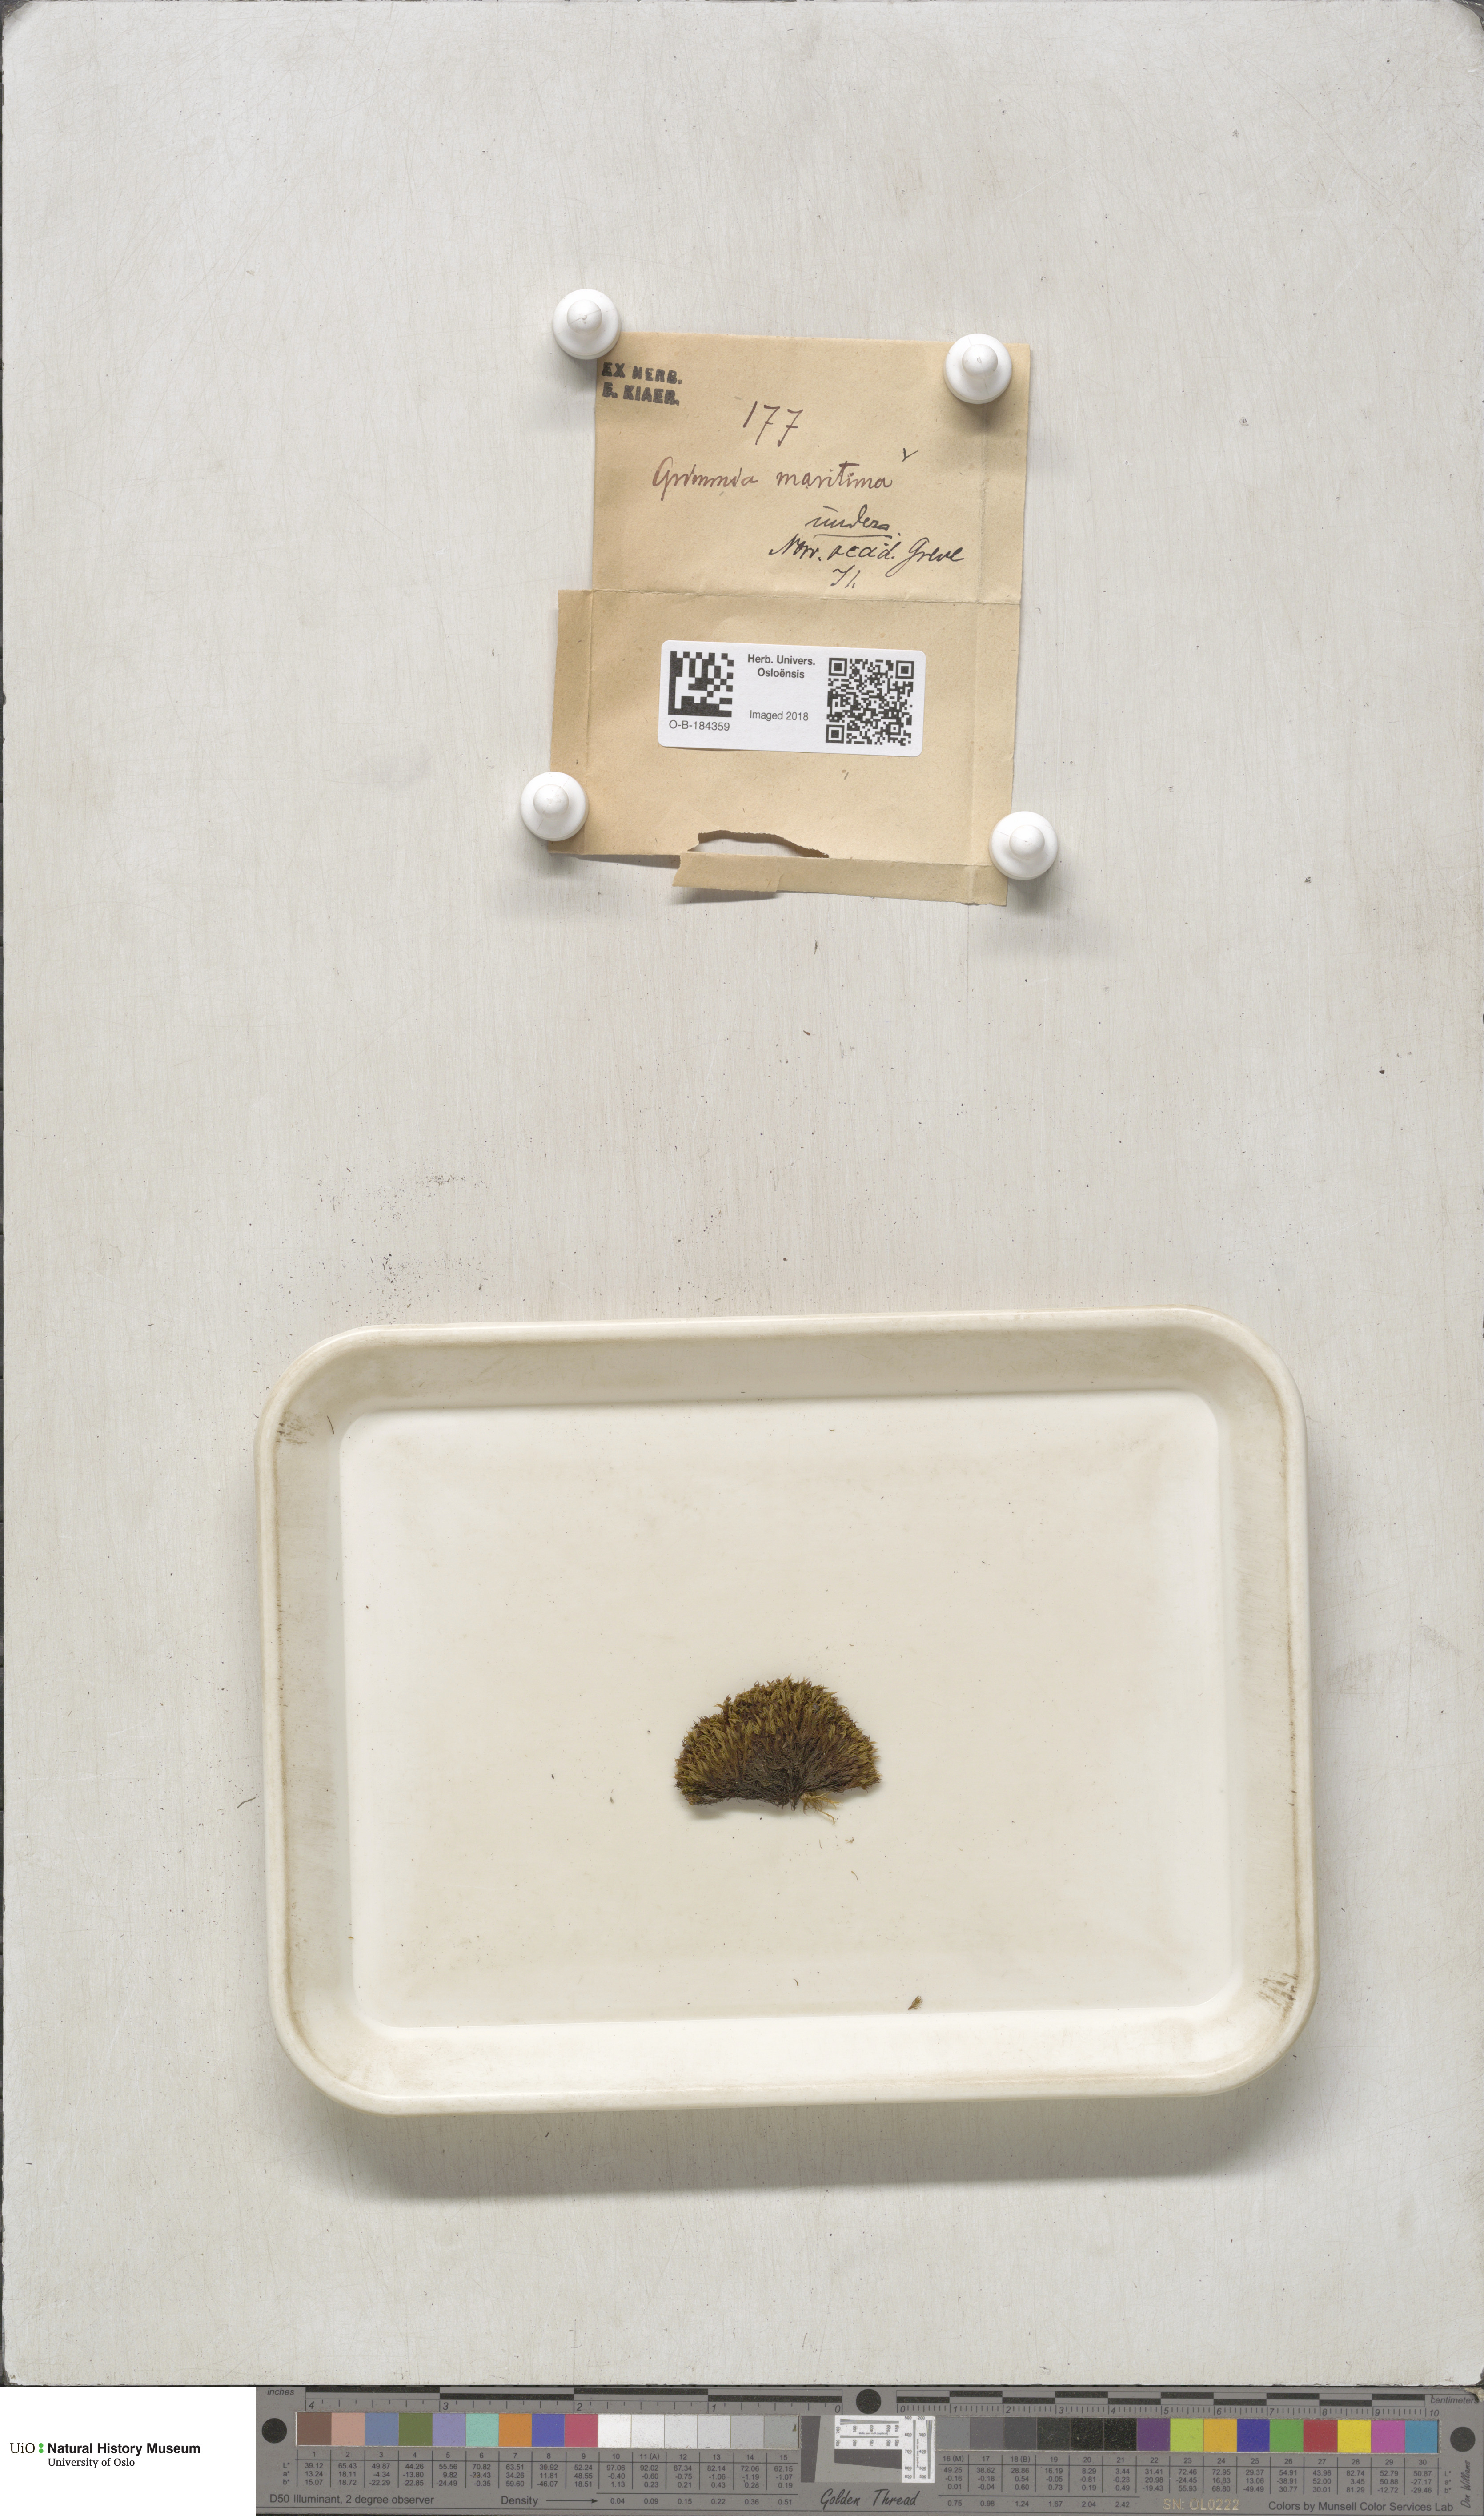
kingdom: Plantae
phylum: Bryophyta
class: Bryopsida
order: Grimmiales
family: Grimmiaceae
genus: Schistidium
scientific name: Schistidium maritimum
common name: Seaside bloom moss
